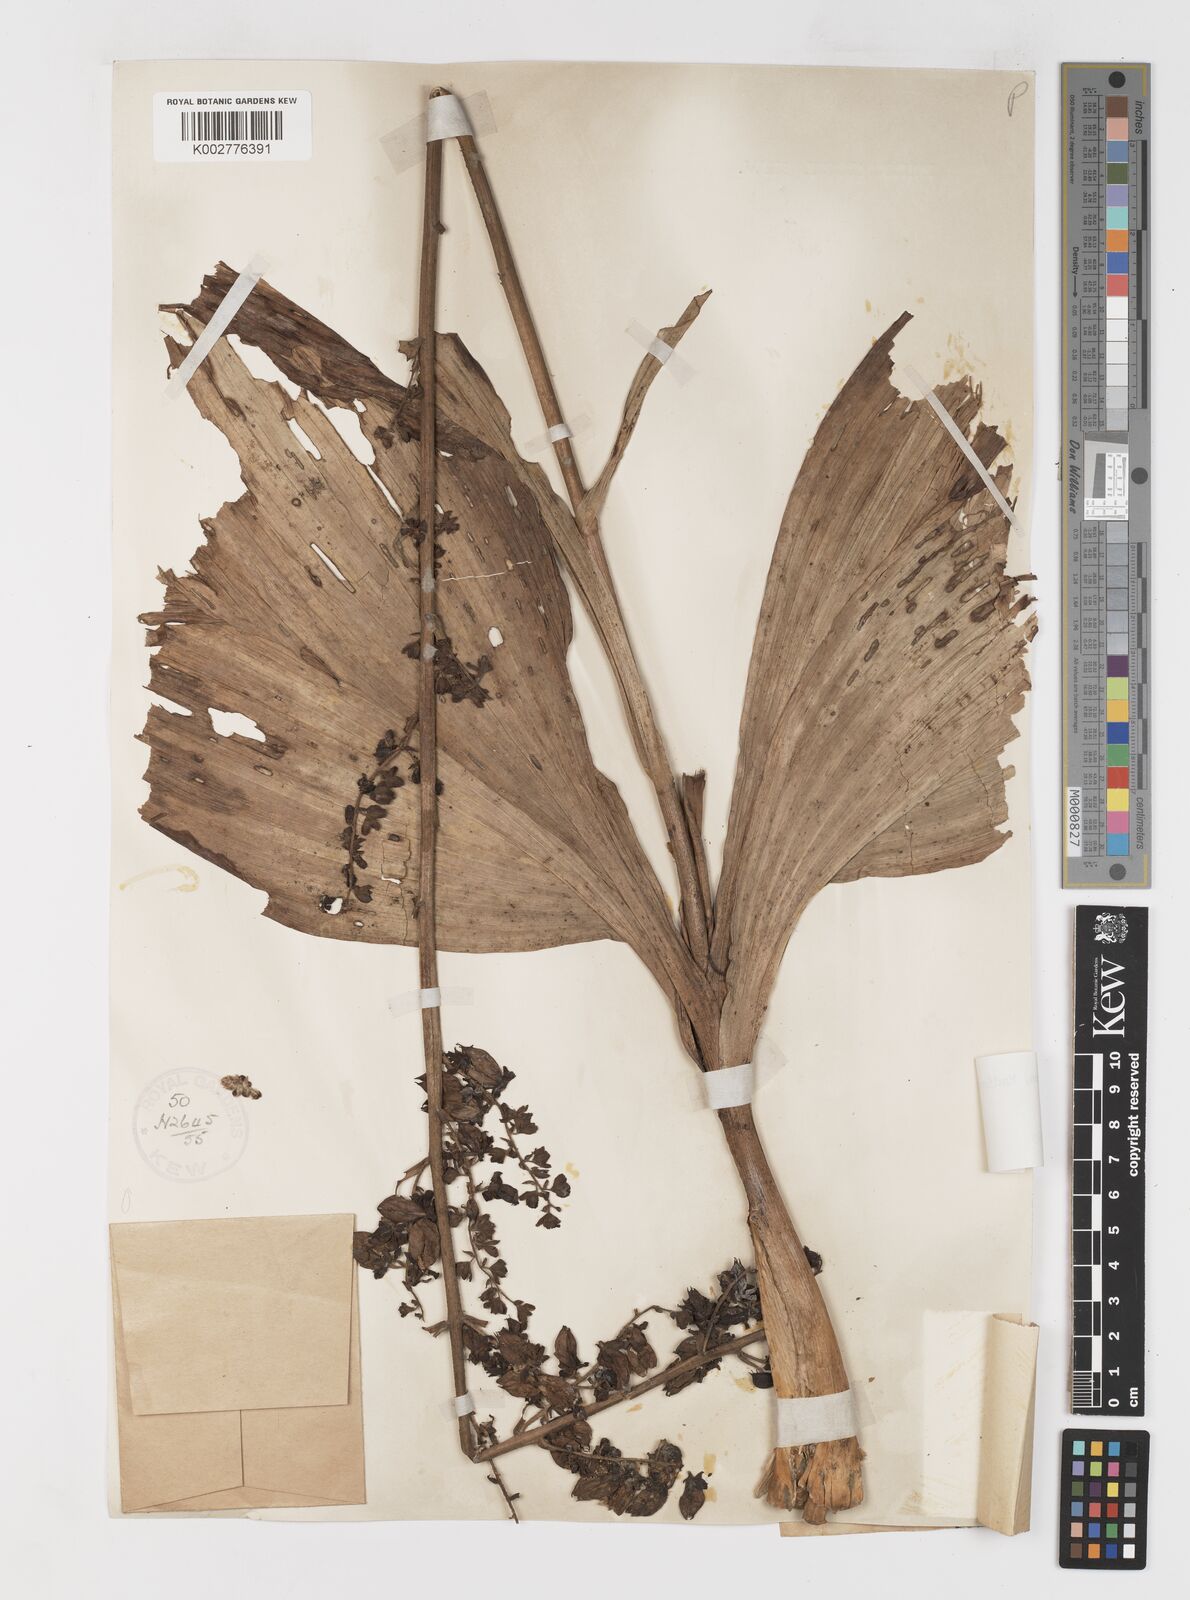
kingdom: Plantae
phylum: Tracheophyta
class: Liliopsida
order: Liliales
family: Melanthiaceae
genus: Veratrum
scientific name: Veratrum nigrum
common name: Black veratrum
